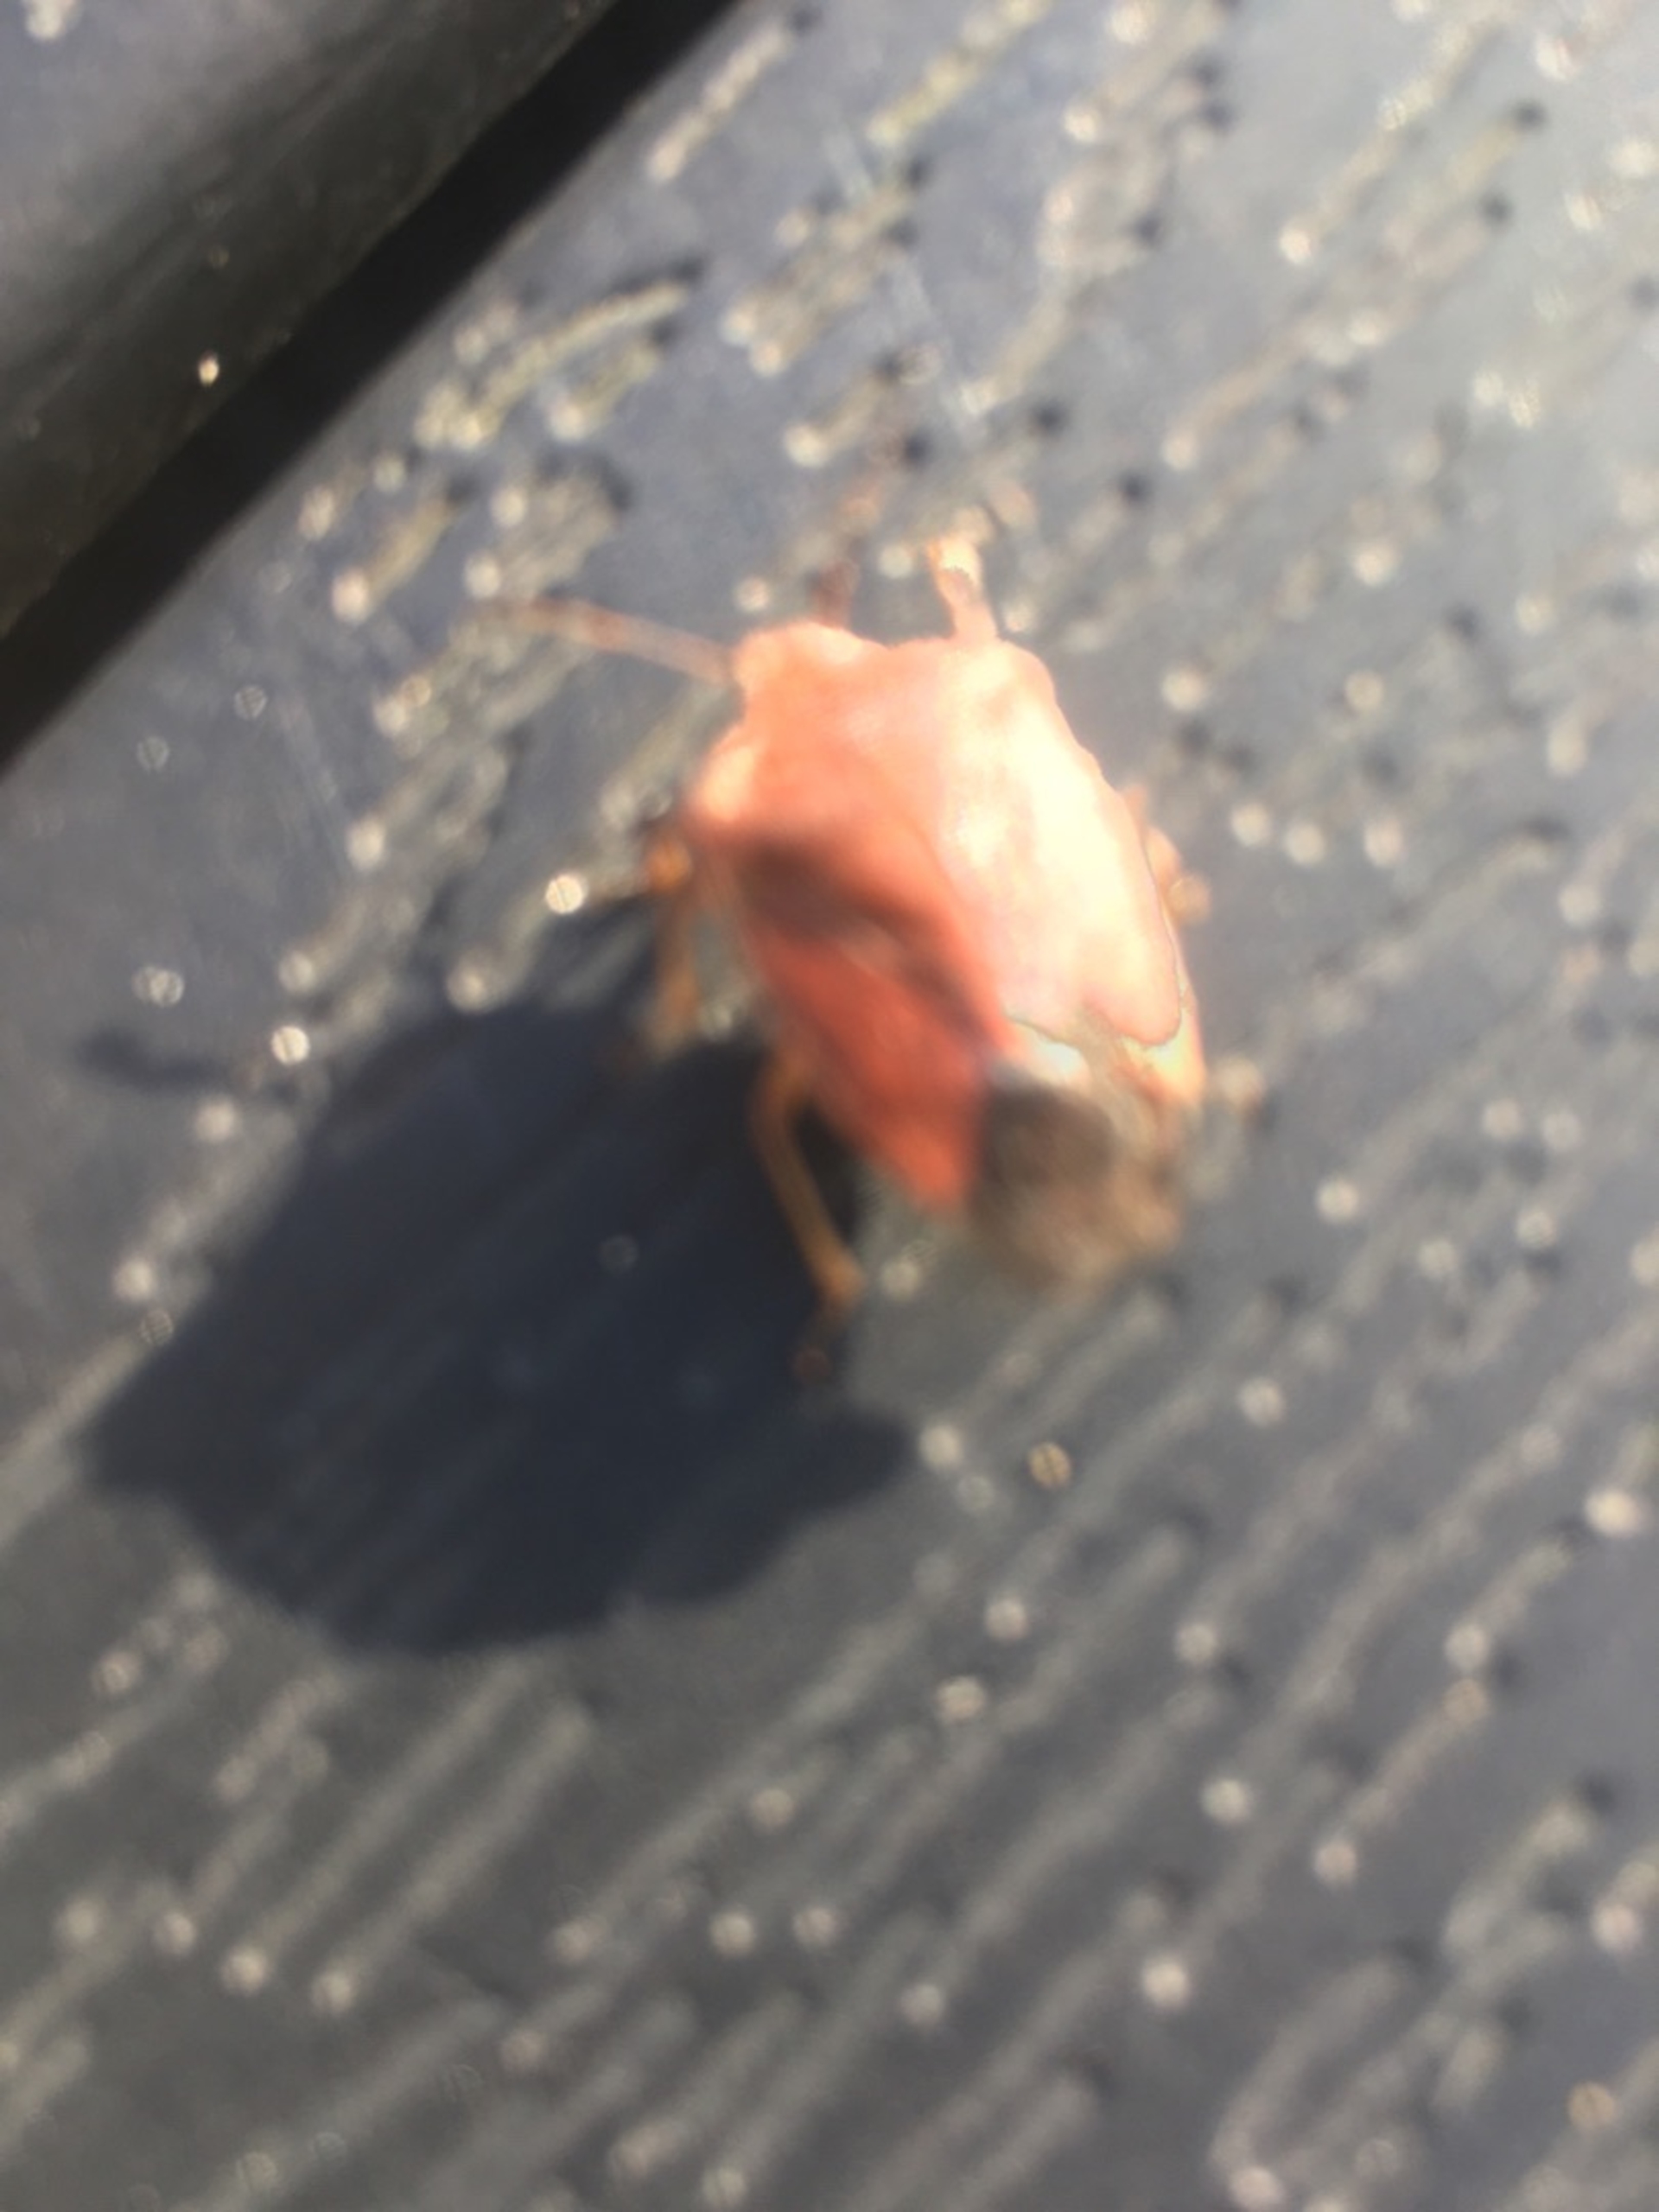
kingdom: Animalia
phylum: Arthropoda
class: Insecta
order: Hemiptera
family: Pentatomidae
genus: Palomena
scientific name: Palomena prasina
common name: Grøn bredtæge
